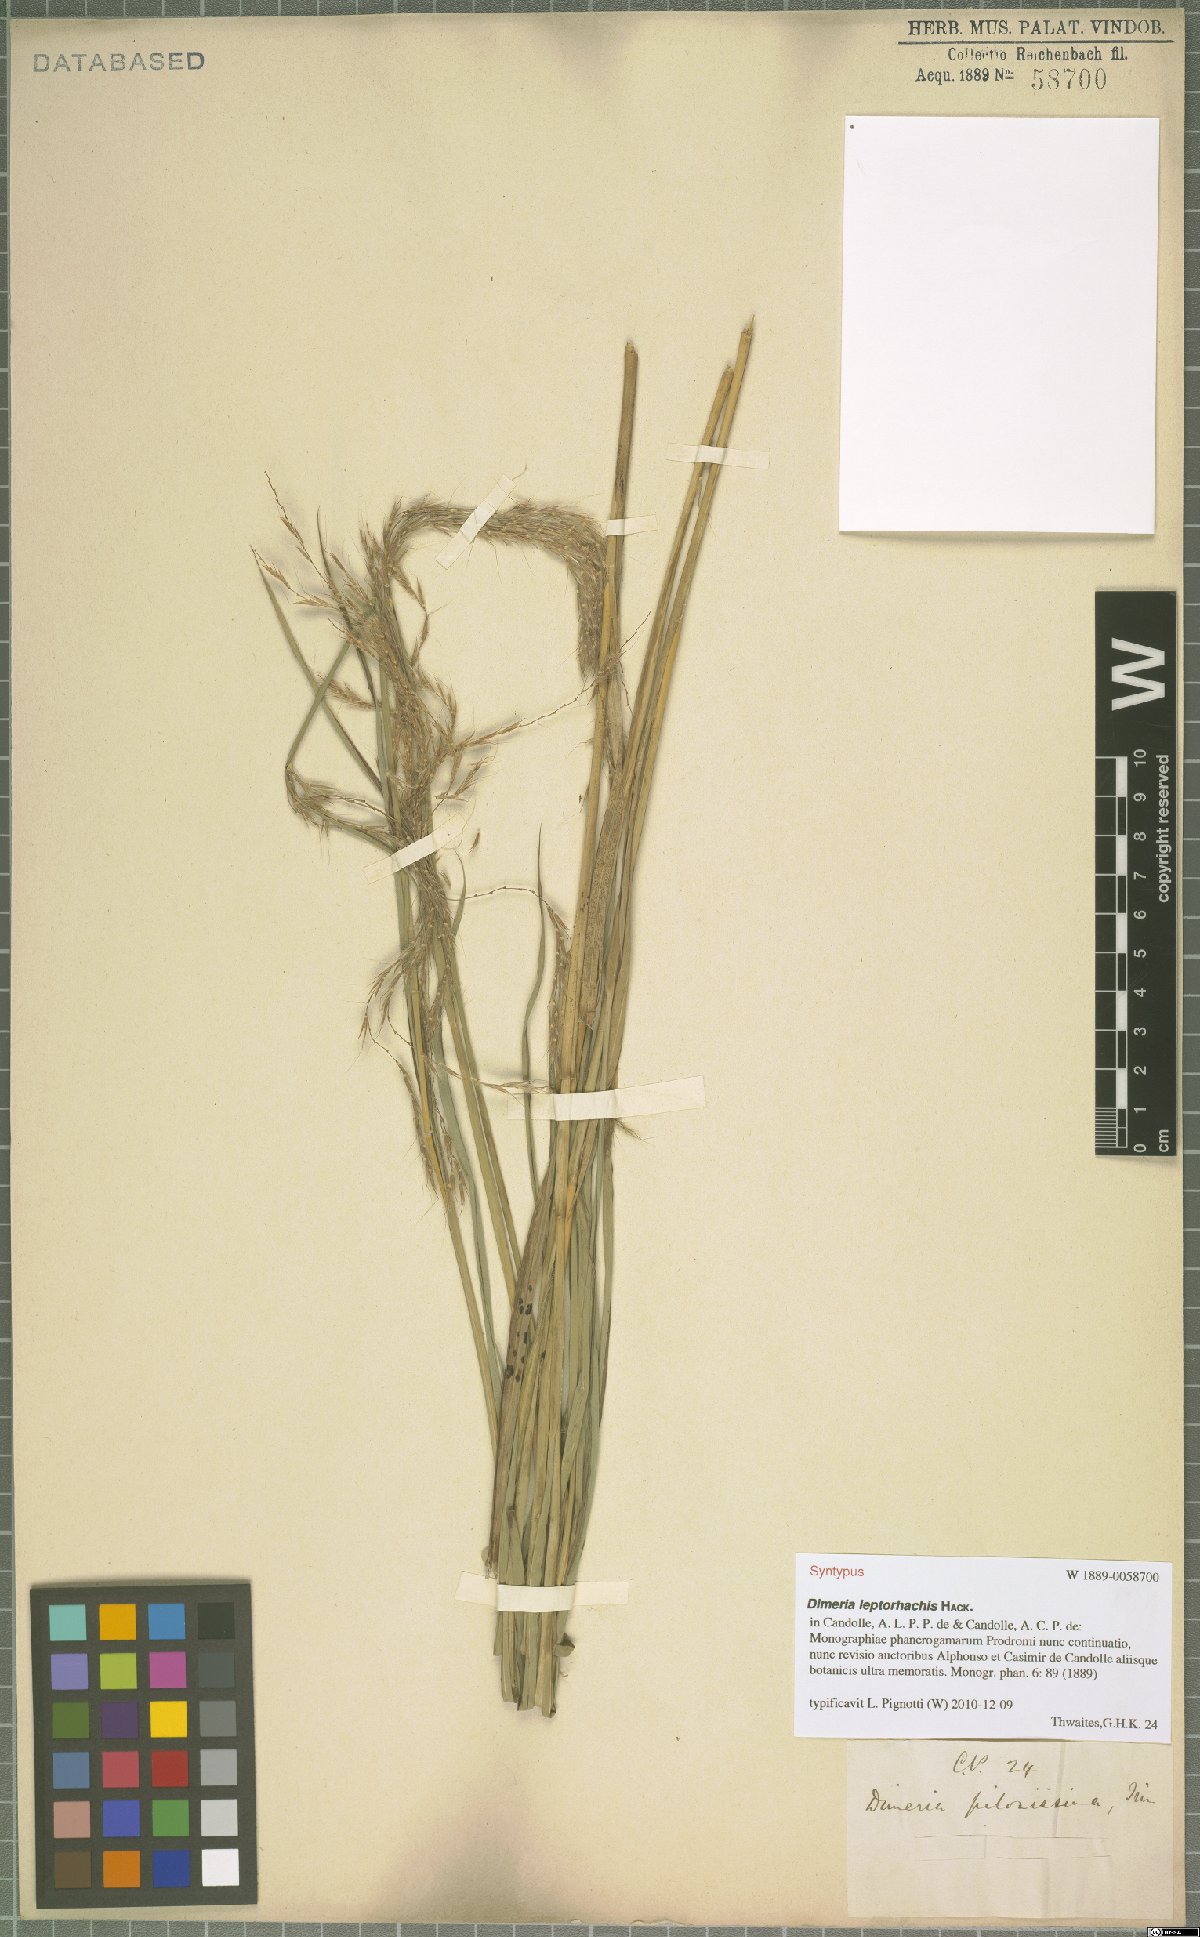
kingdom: Plantae
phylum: Tracheophyta
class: Liliopsida
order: Poales
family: Poaceae
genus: Dimeria
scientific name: Dimeria gracilis
